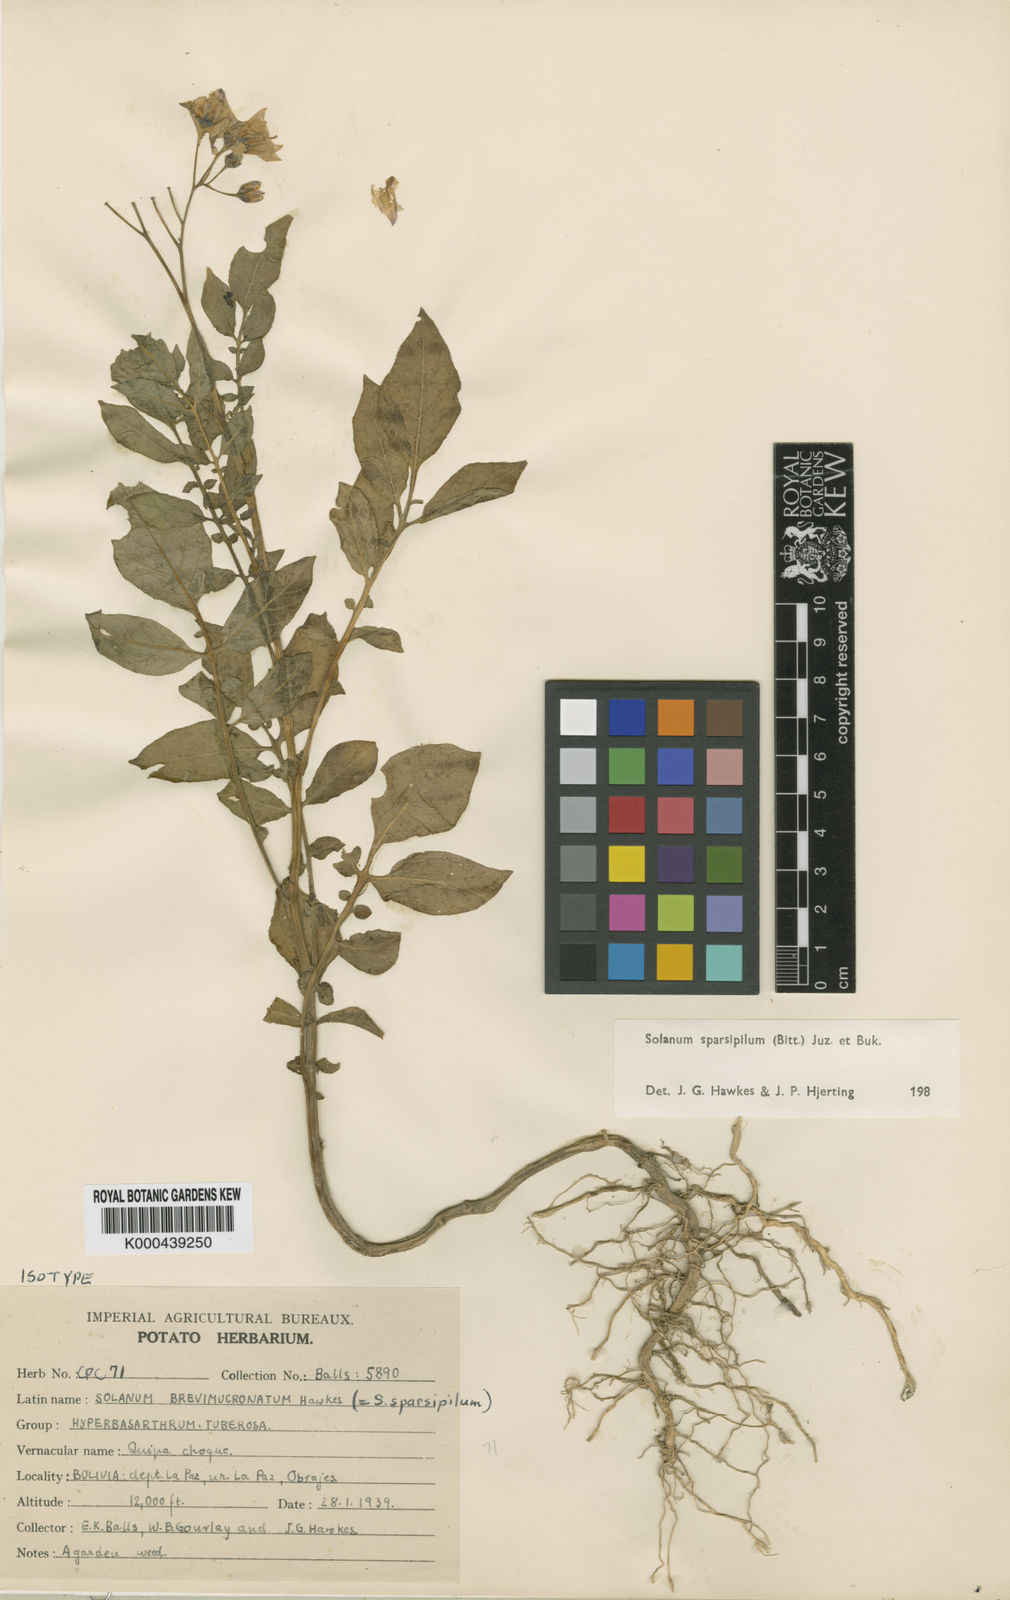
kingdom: Plantae
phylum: Tracheophyta
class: Magnoliopsida
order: Solanales
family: Solanaceae
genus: Solanum
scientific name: Solanum brevicaule
